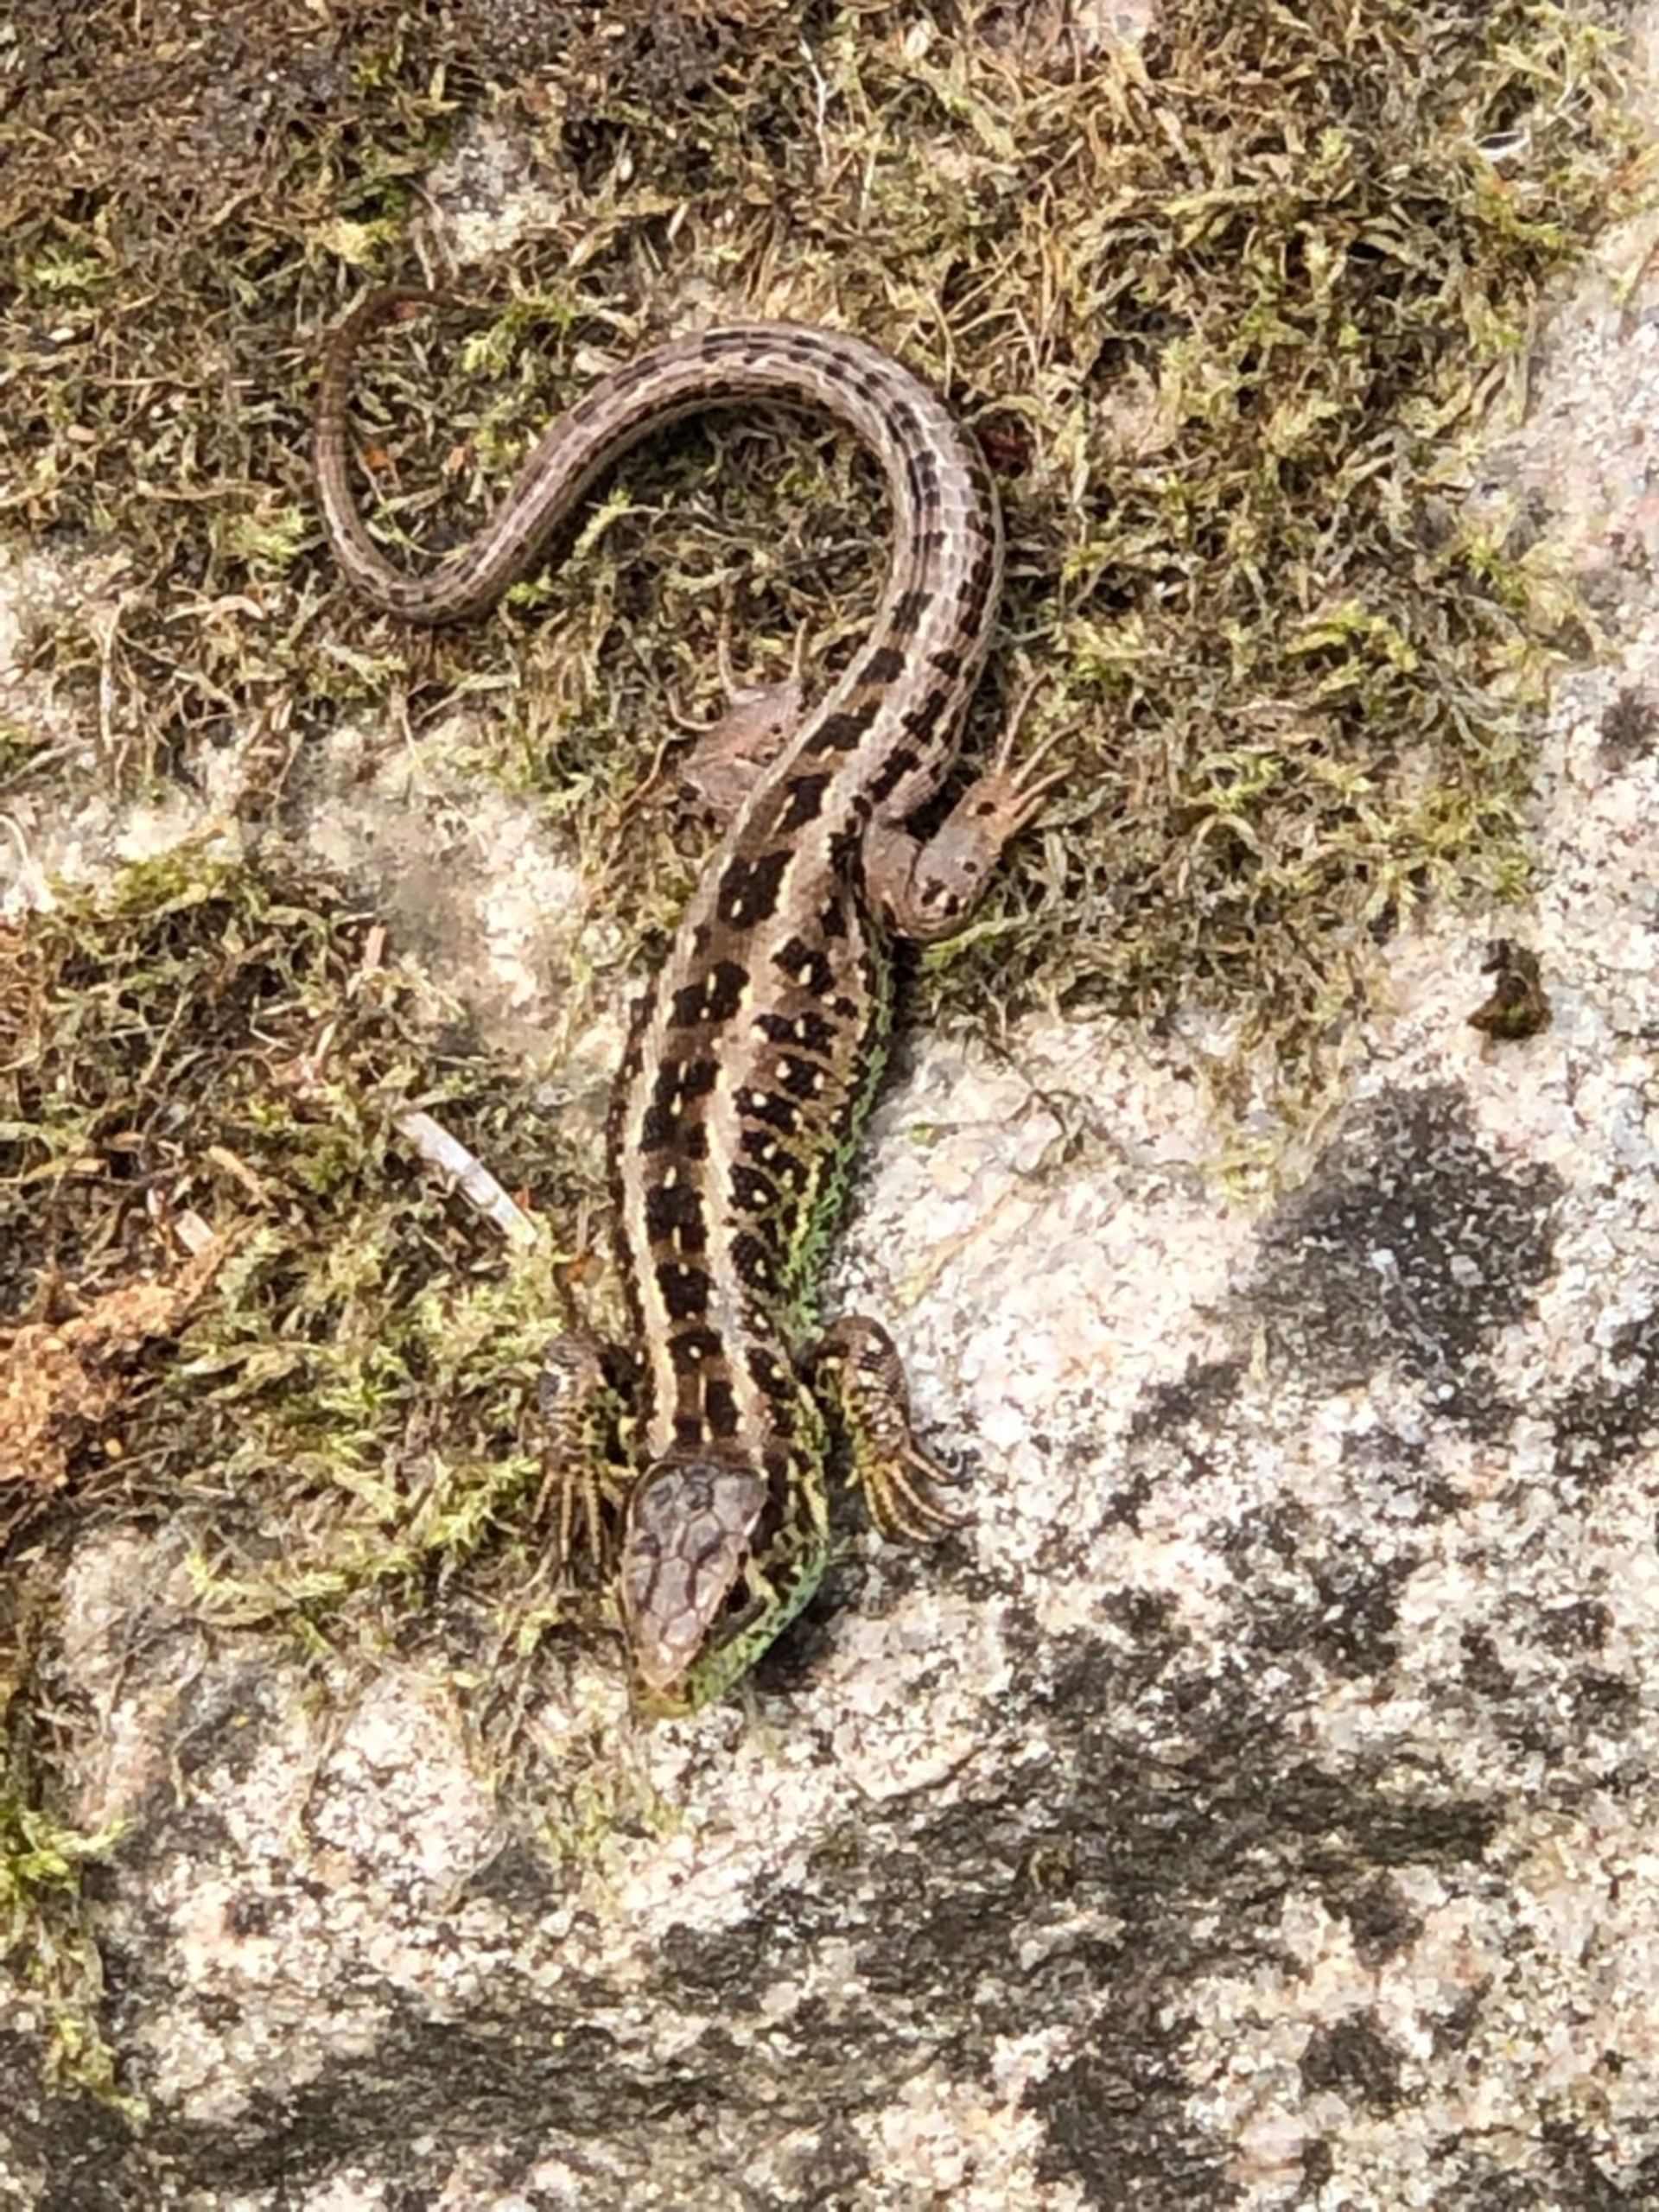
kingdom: Animalia
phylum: Chordata
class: Squamata
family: Lacertidae
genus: Lacerta
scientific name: Lacerta agilis
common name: Markfirben
